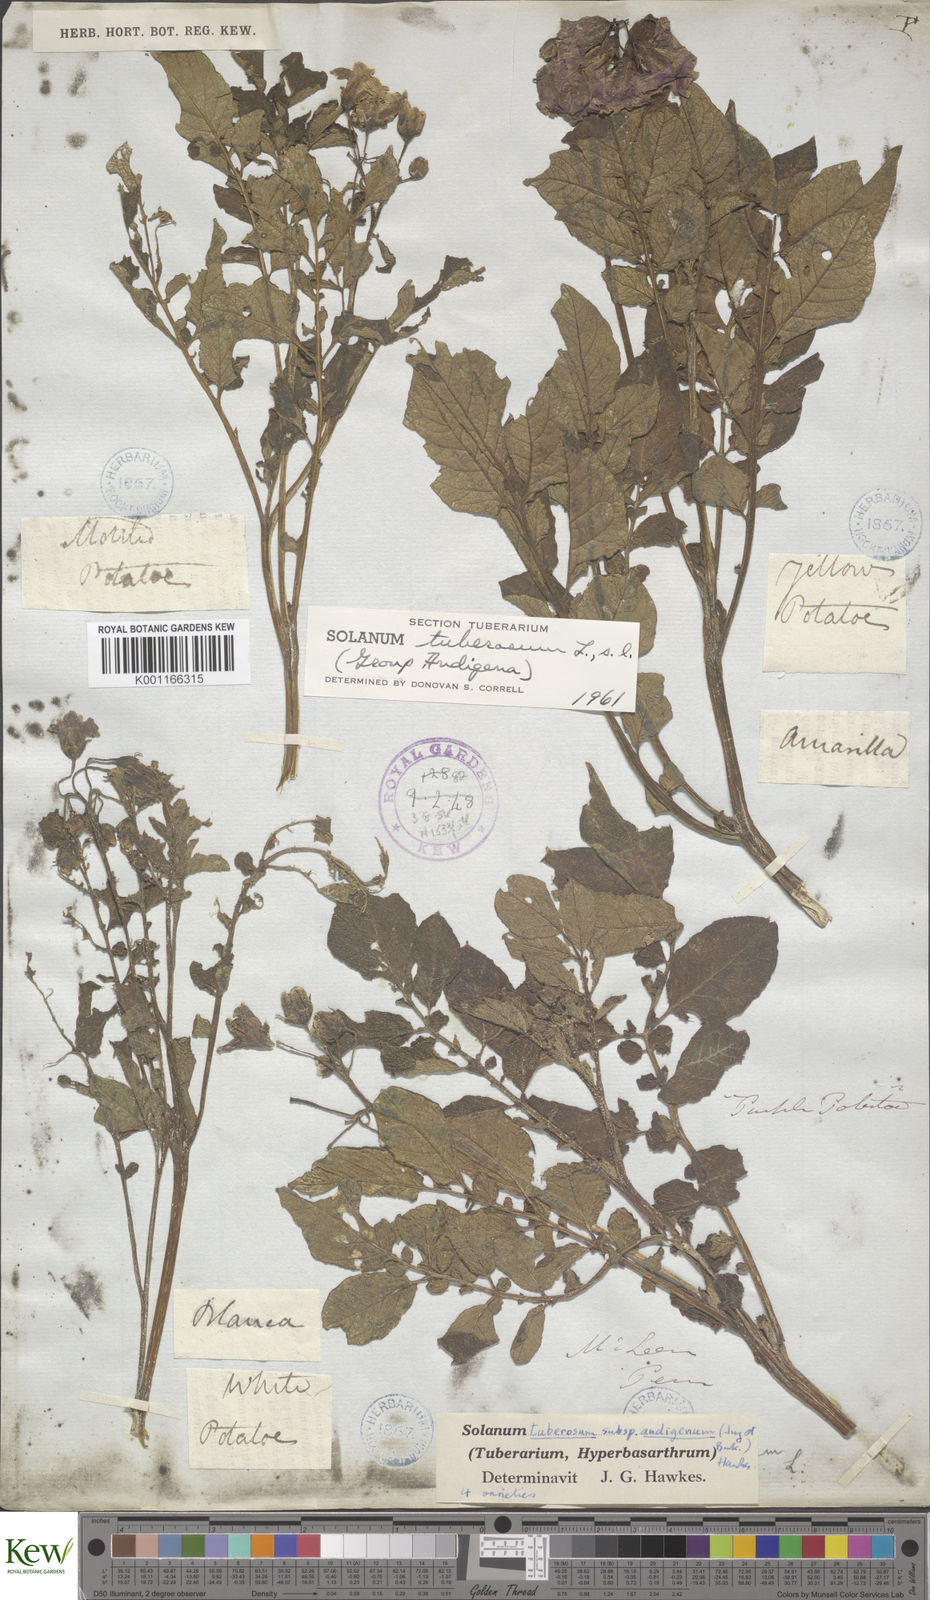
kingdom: Plantae
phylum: Tracheophyta
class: Magnoliopsida
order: Solanales
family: Solanaceae
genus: Solanum
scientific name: Solanum tuberosum
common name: Potato
